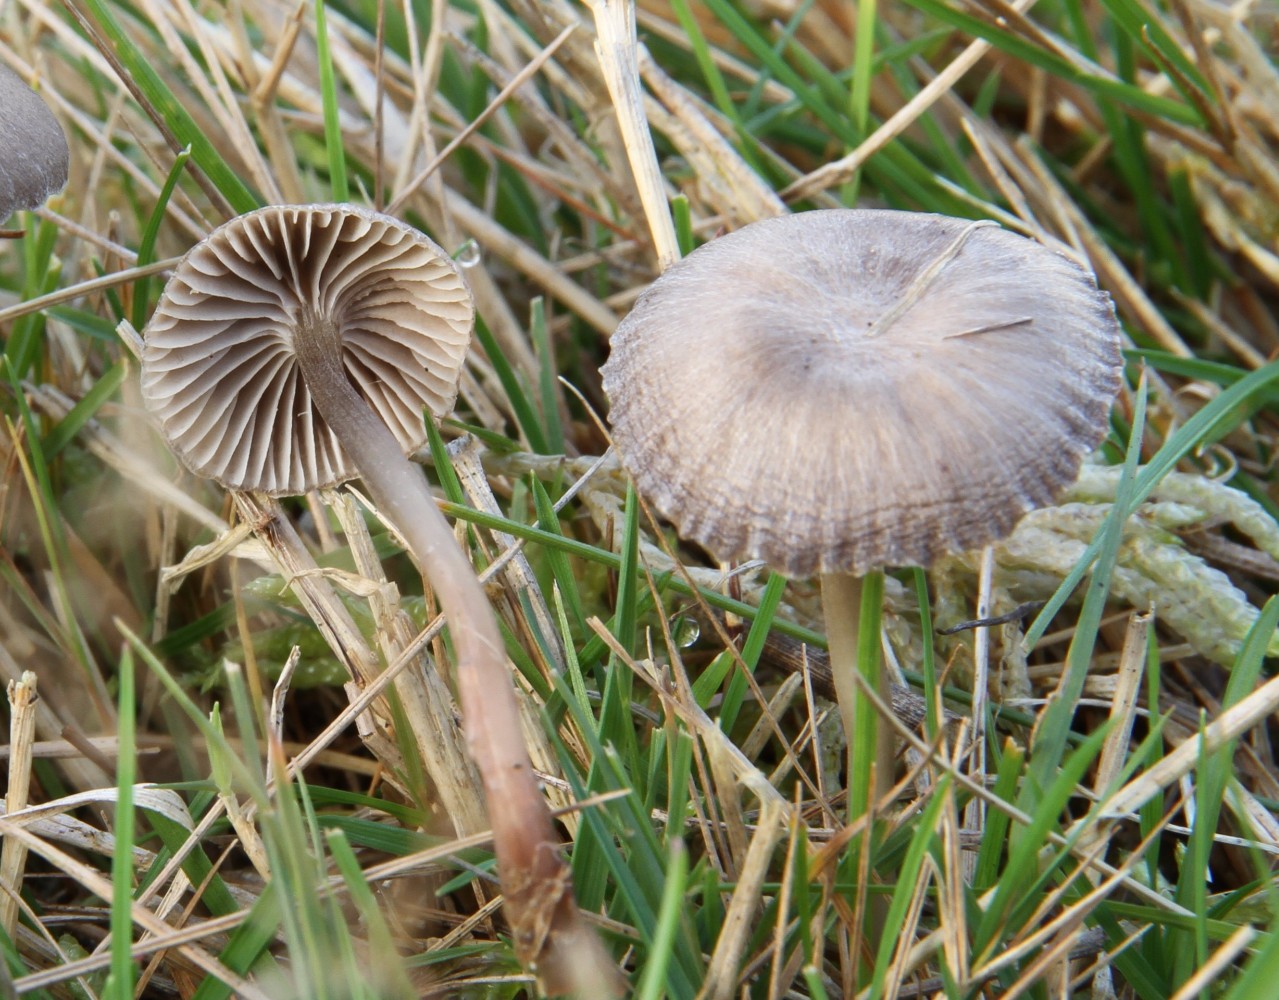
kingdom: Fungi
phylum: Basidiomycota
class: Agaricomycetes
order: Agaricales
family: Mycenaceae
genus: Mycena
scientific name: Mycena
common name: huesvamp
